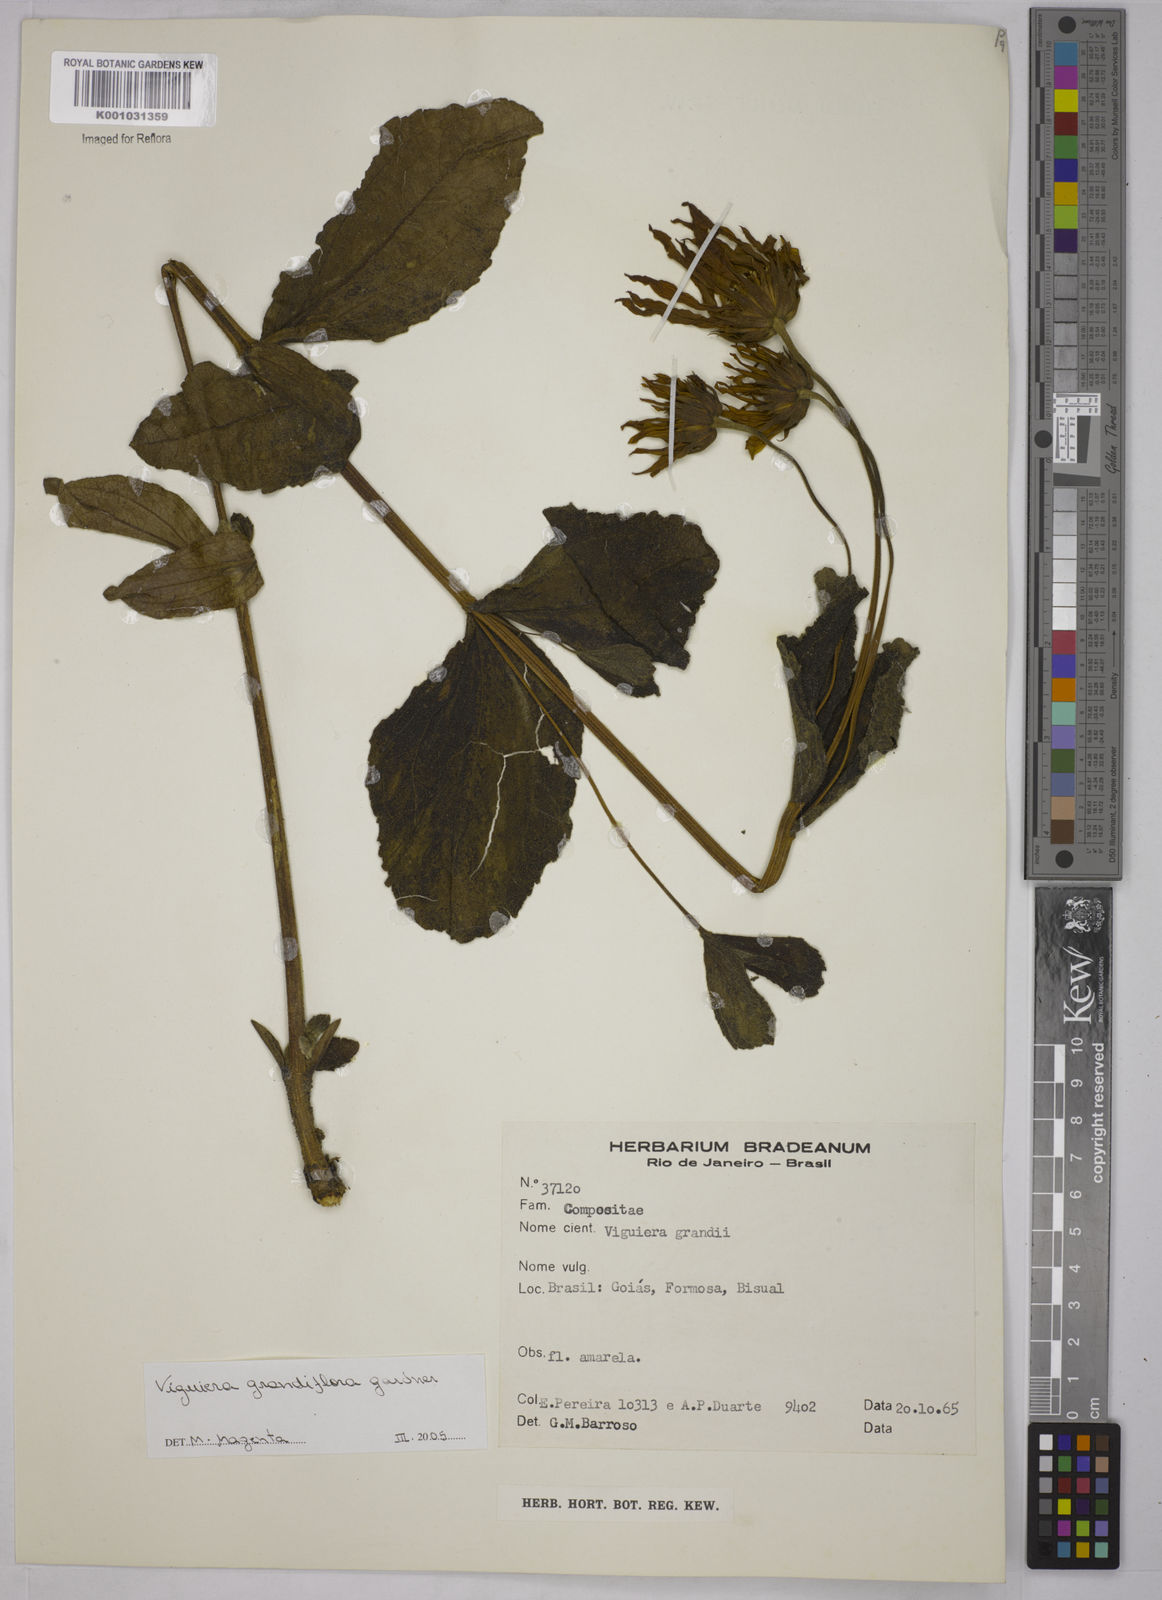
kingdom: Plantae
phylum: Tracheophyta
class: Magnoliopsida
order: Asterales
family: Asteraceae
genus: Aldama
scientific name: Aldama grandiflora
